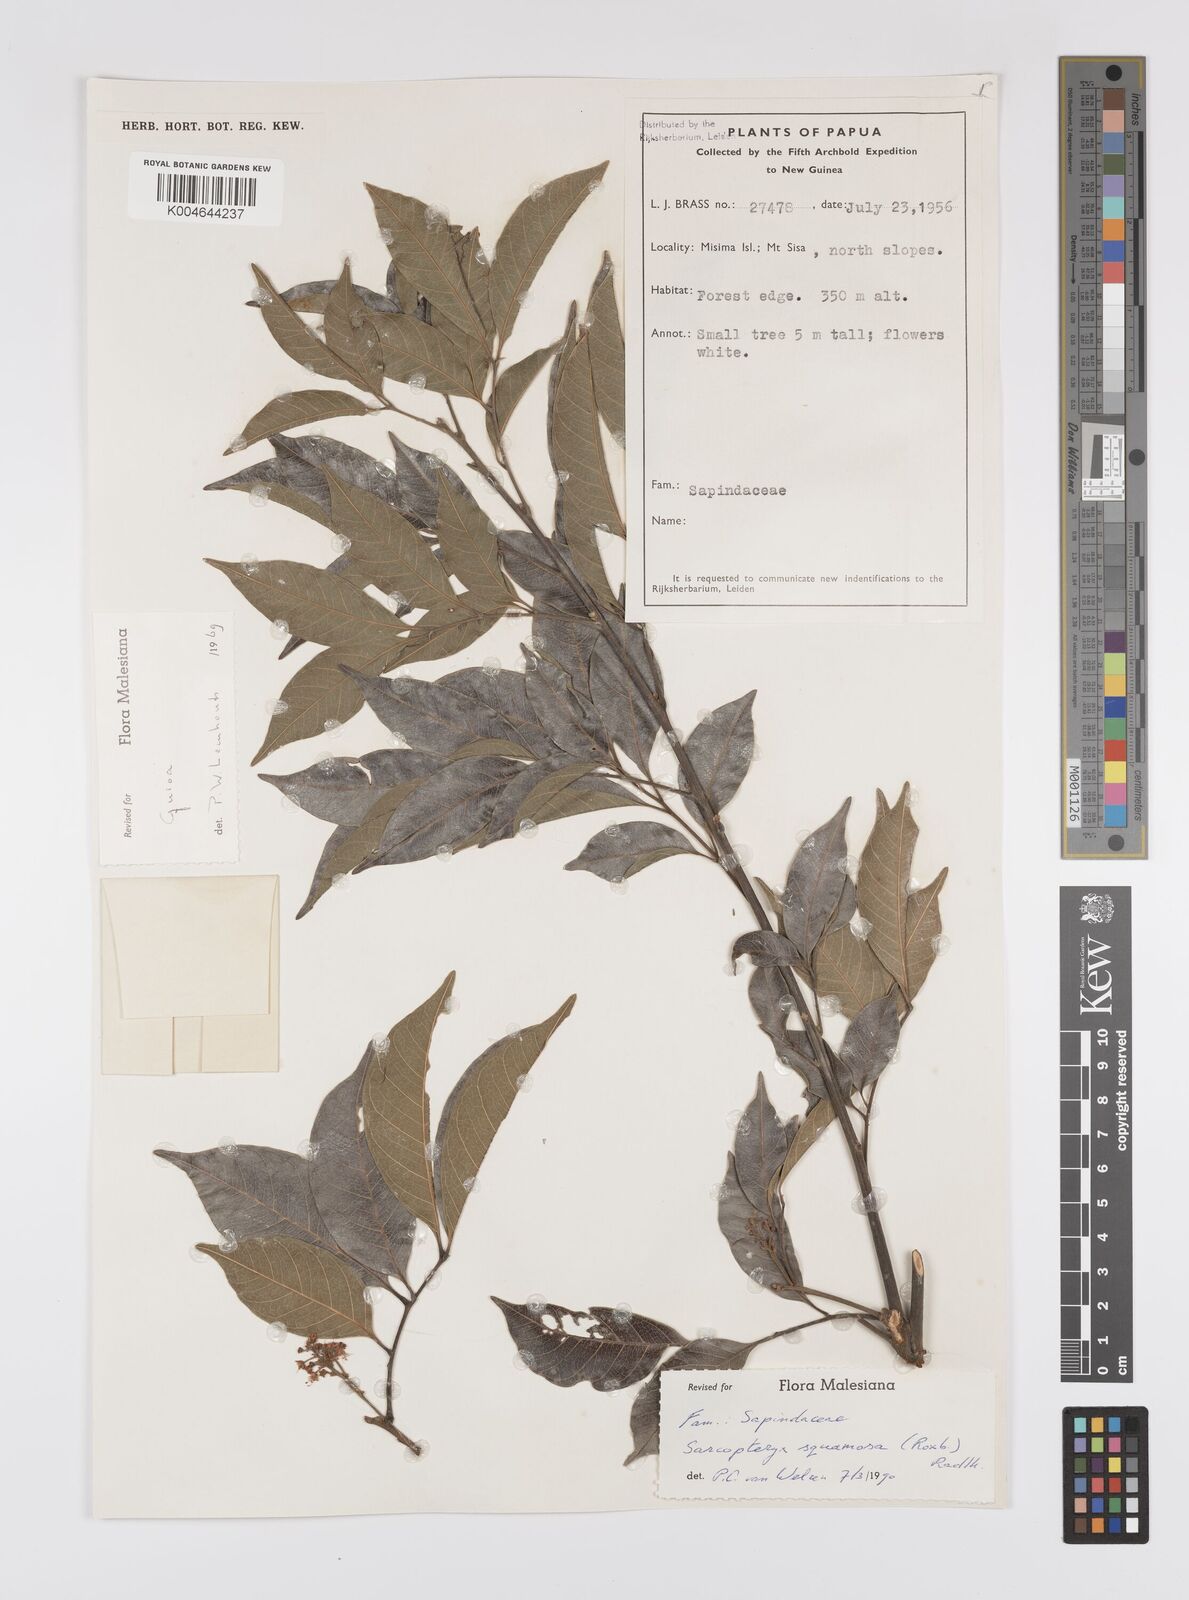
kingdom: Plantae
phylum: Tracheophyta
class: Magnoliopsida
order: Sapindales
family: Sapindaceae
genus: Sarcopteryx
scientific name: Sarcopteryx squamosa
